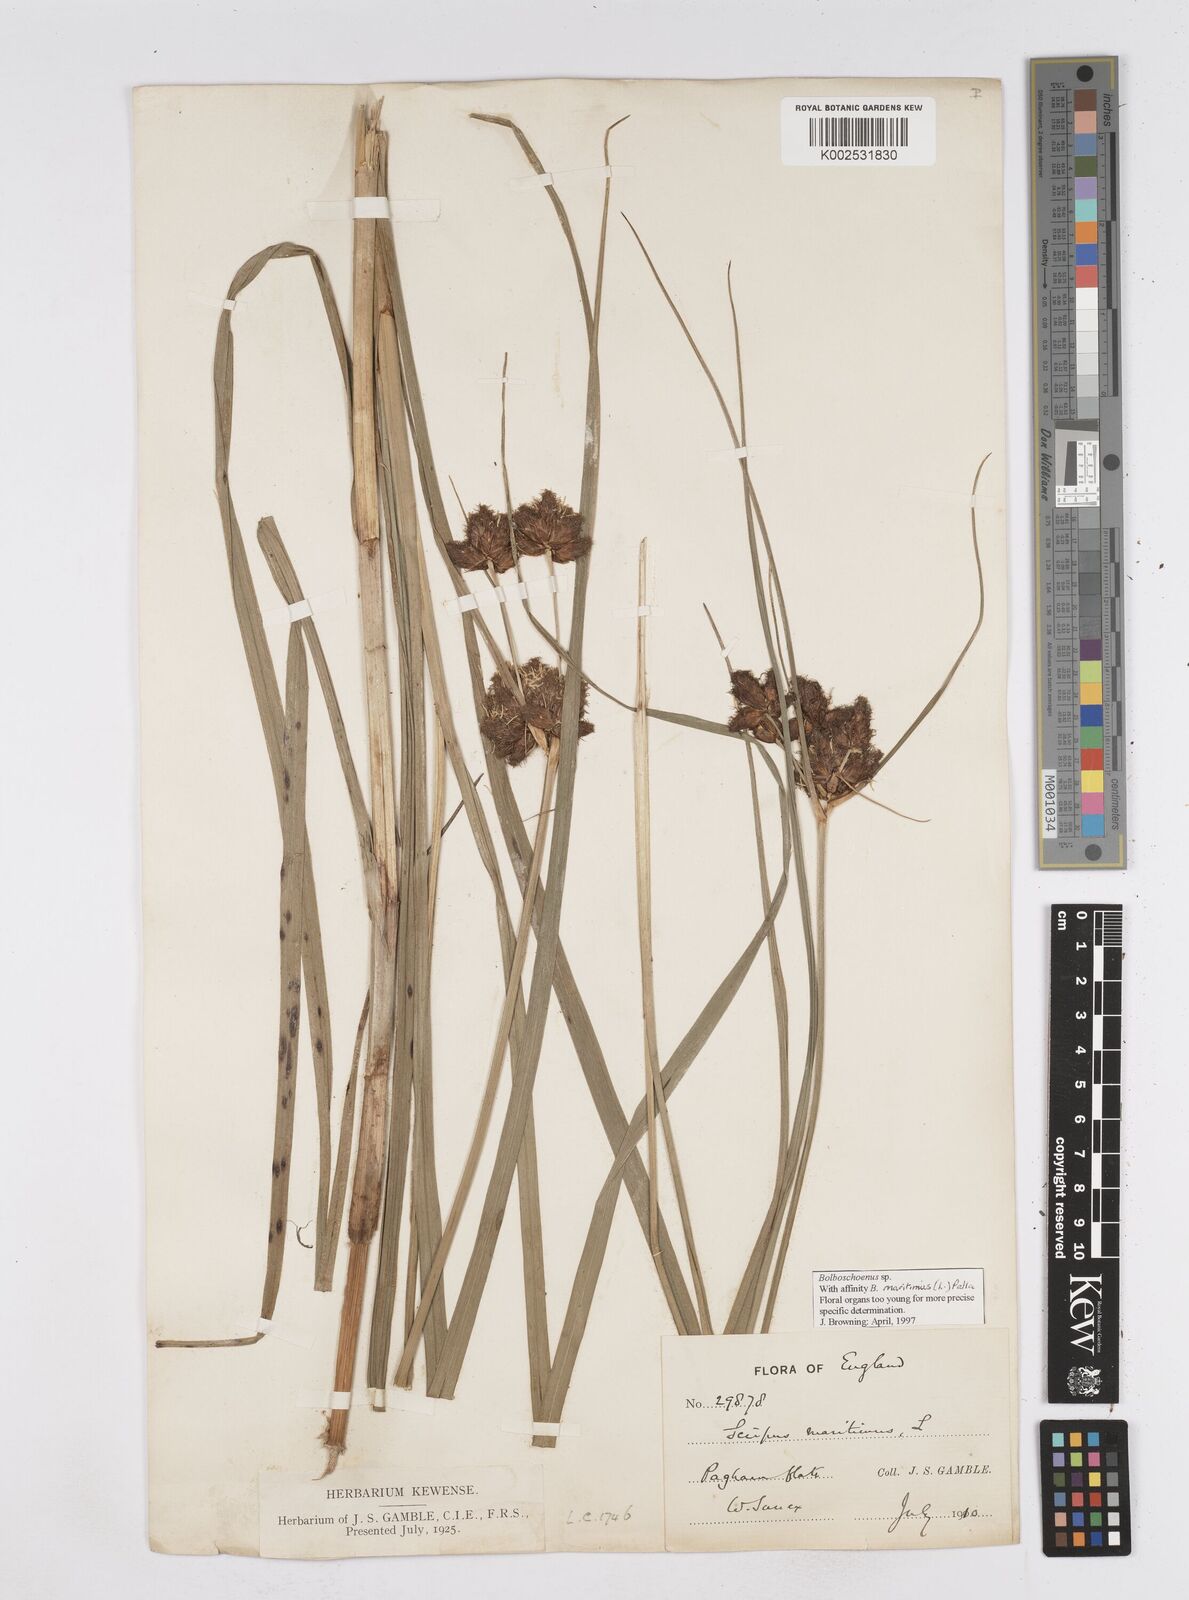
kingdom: Plantae
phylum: Tracheophyta
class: Liliopsida
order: Poales
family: Cyperaceae
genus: Bolboschoenus
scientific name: Bolboschoenus maritimus
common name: Sea club-rush
